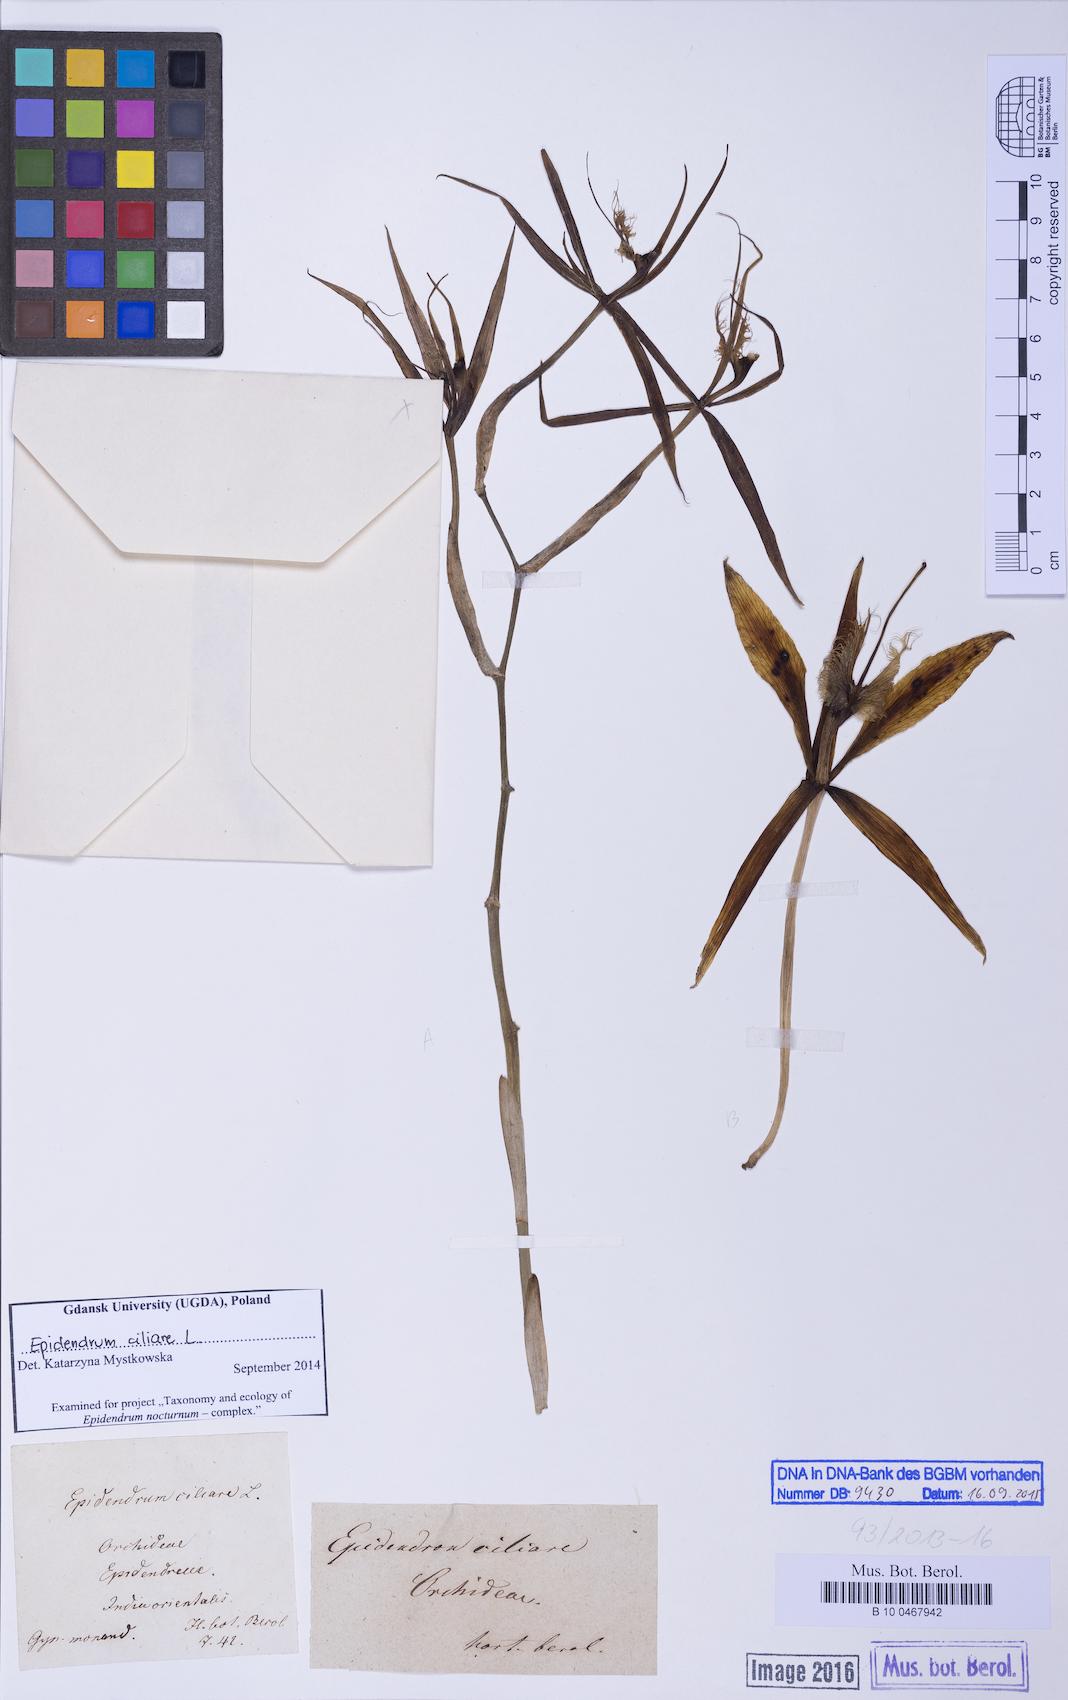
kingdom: Plantae
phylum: Tracheophyta
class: Liliopsida
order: Asparagales
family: Orchidaceae
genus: Epidendrum
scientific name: Epidendrum ciliare
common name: Eyelash orchid
